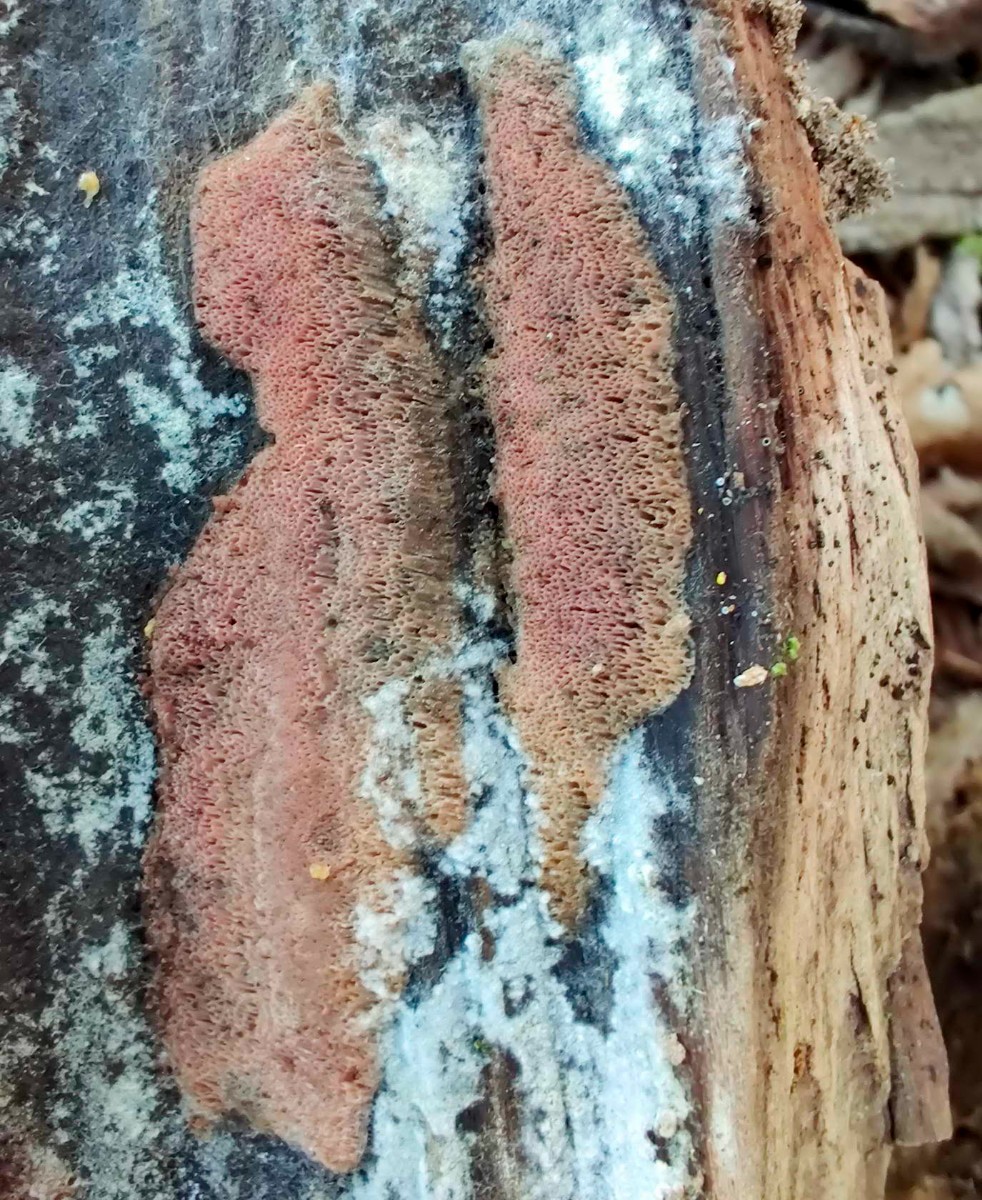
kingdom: Fungi
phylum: Basidiomycota
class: Agaricomycetes
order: Polyporales
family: Irpicaceae
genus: Ceriporia
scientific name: Ceriporia viridans
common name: foranderlig voksporesvamp
